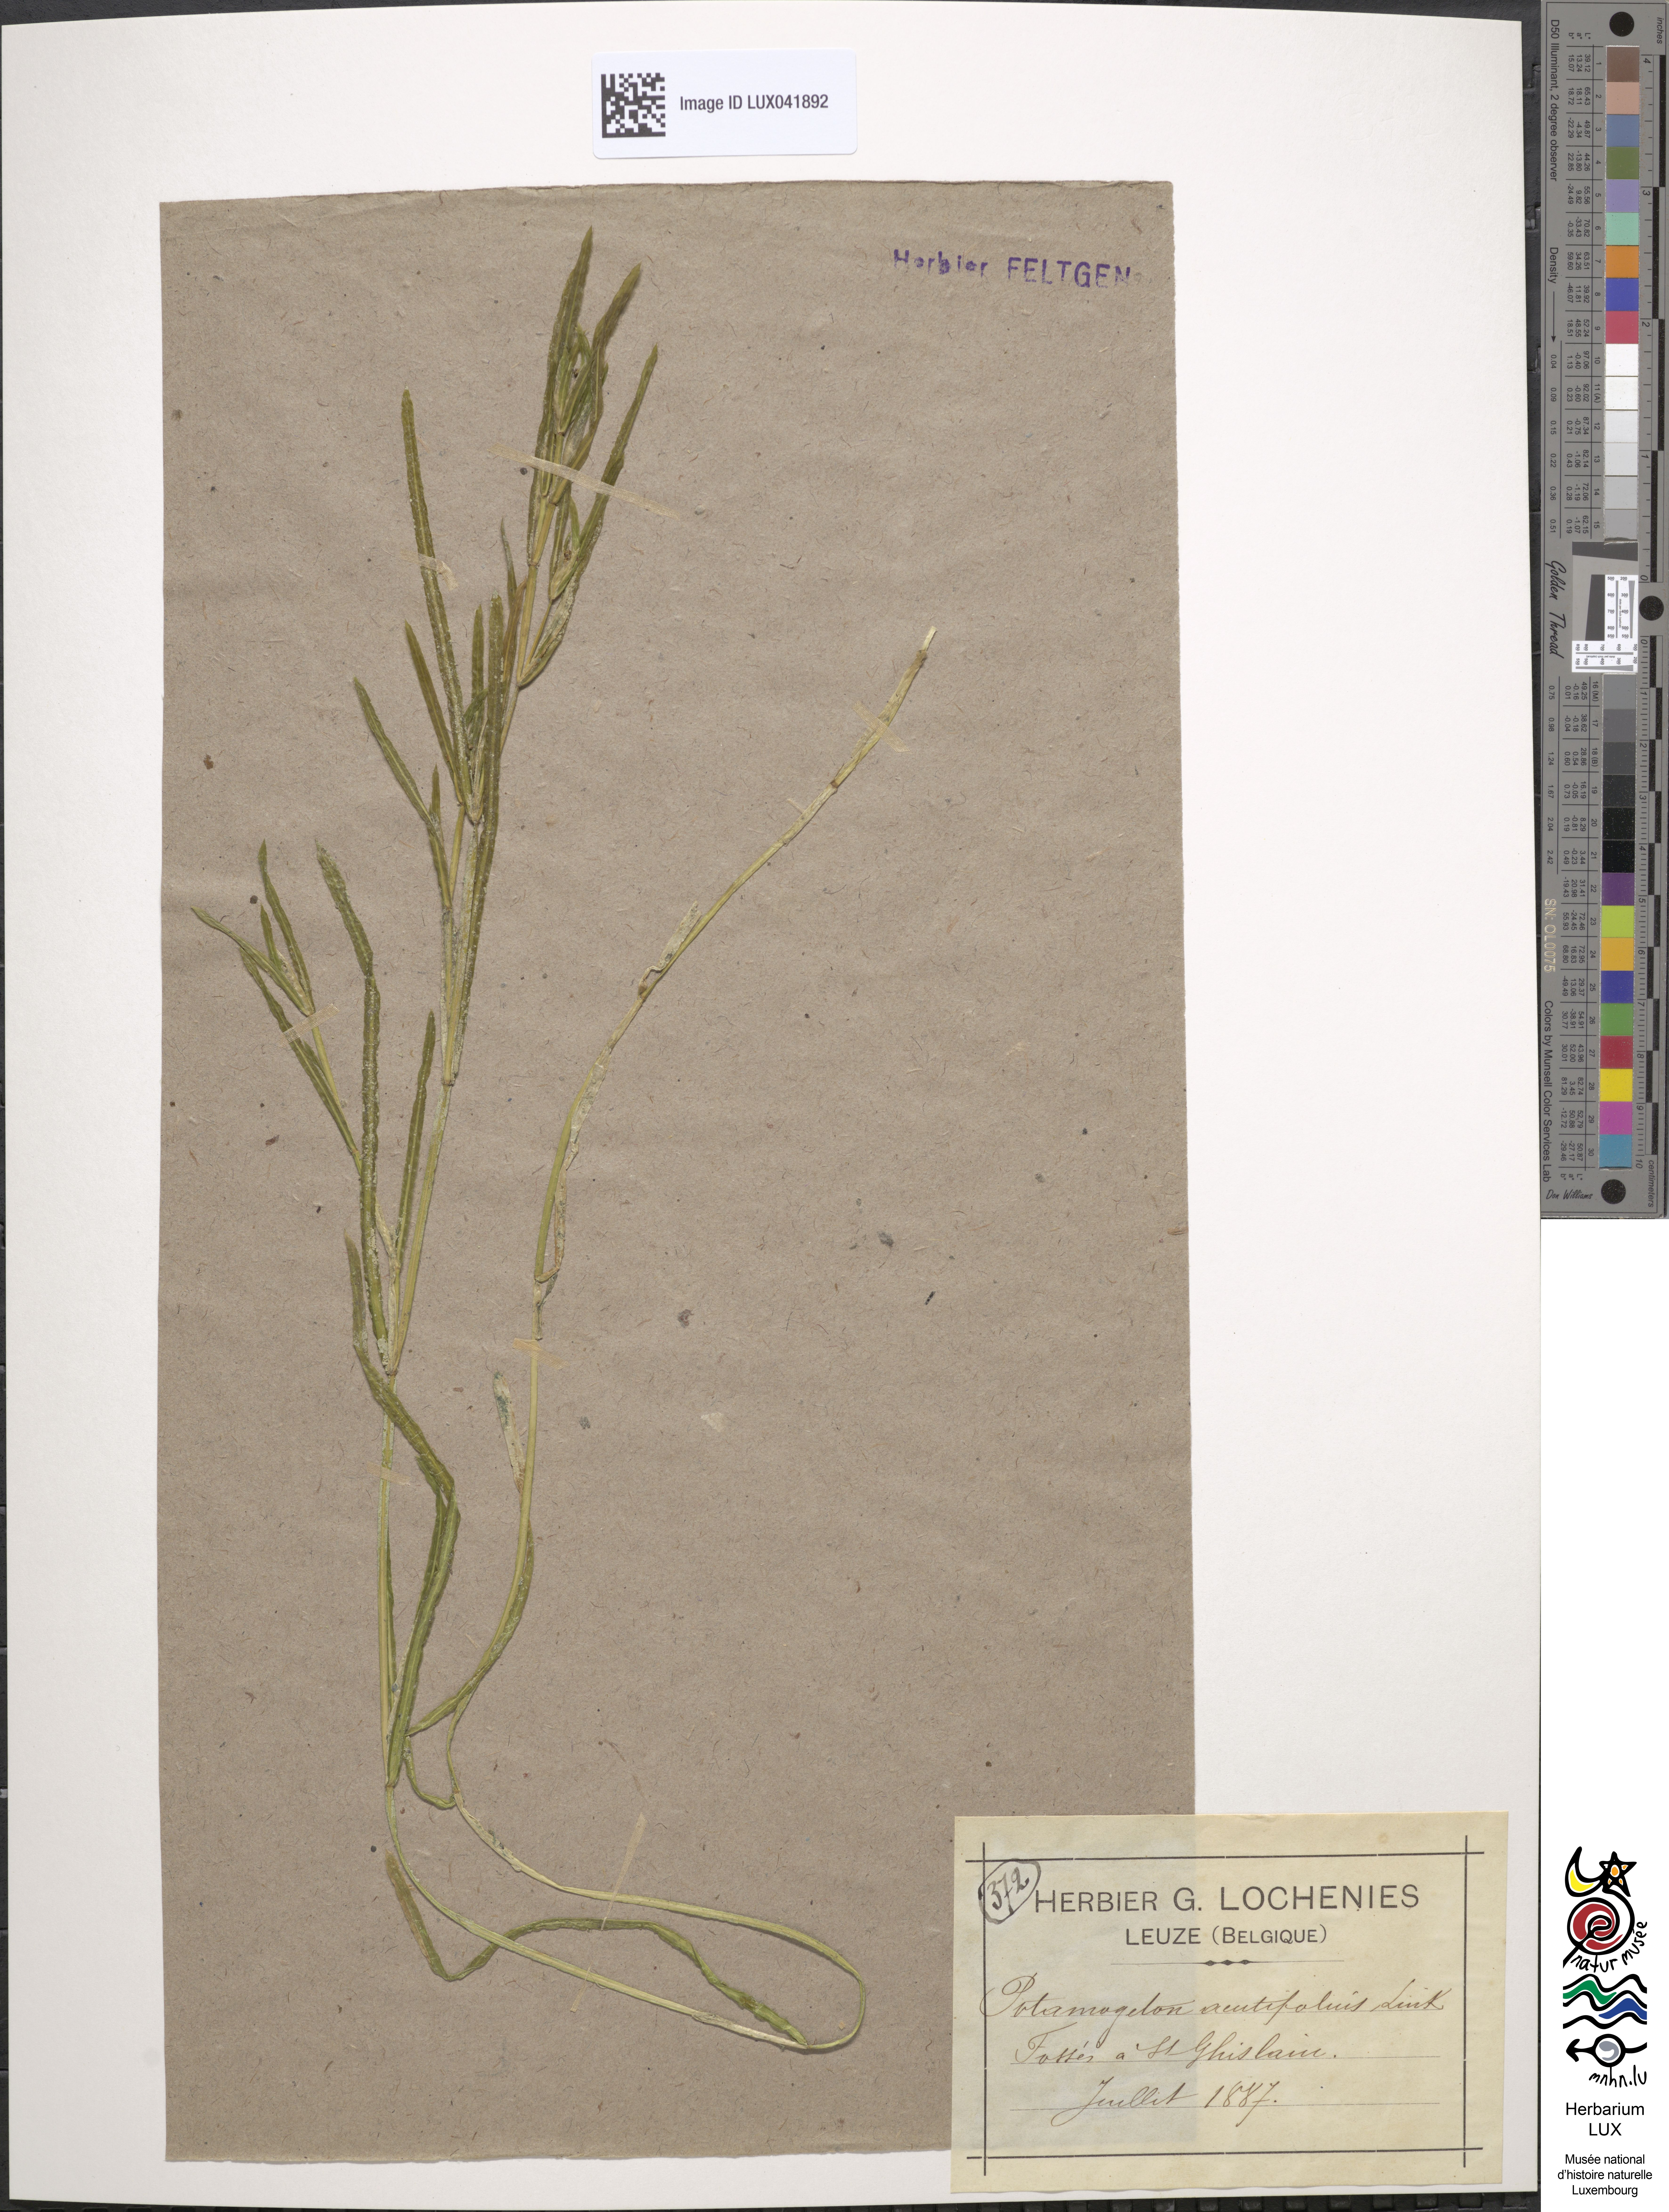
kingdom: Plantae
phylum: Tracheophyta
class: Liliopsida
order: Alismatales
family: Potamogetonaceae
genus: Potamogeton
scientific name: Potamogeton acutifolius
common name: Sharp-leaved pondweed
